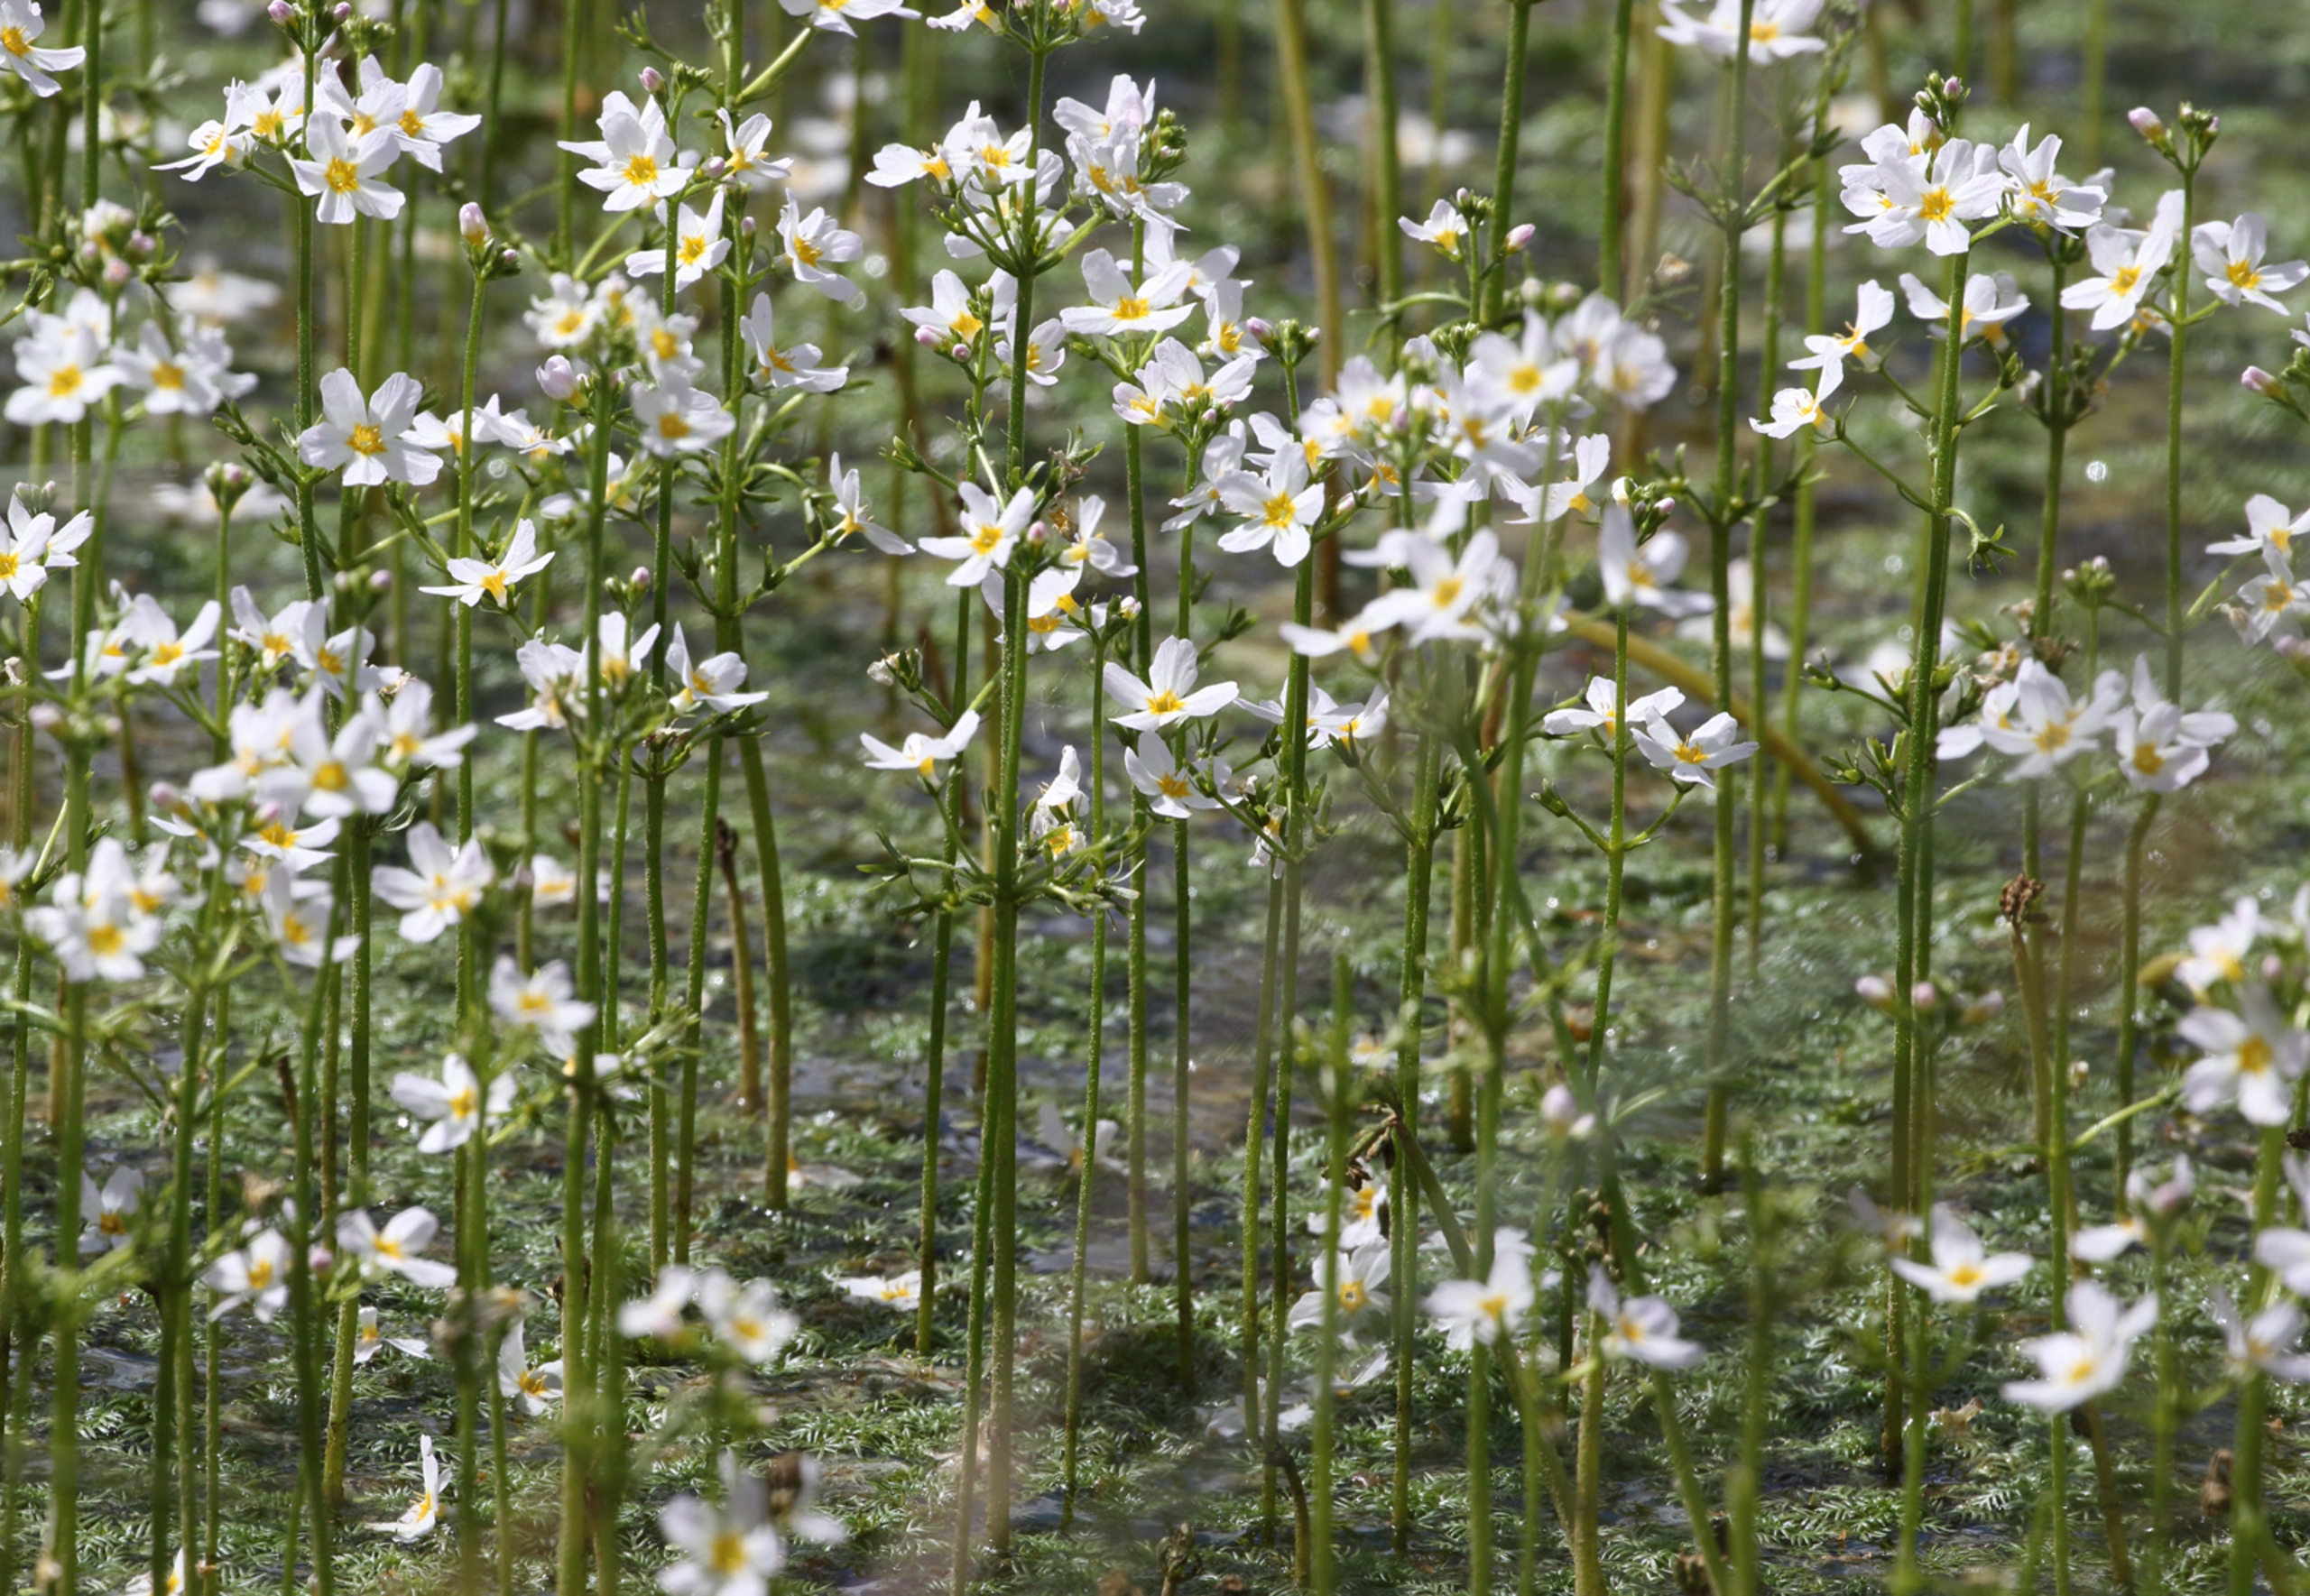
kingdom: Plantae
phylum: Tracheophyta
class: Magnoliopsida
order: Ericales
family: Primulaceae
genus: Hottonia
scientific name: Hottonia palustris
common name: Vandrøllike
